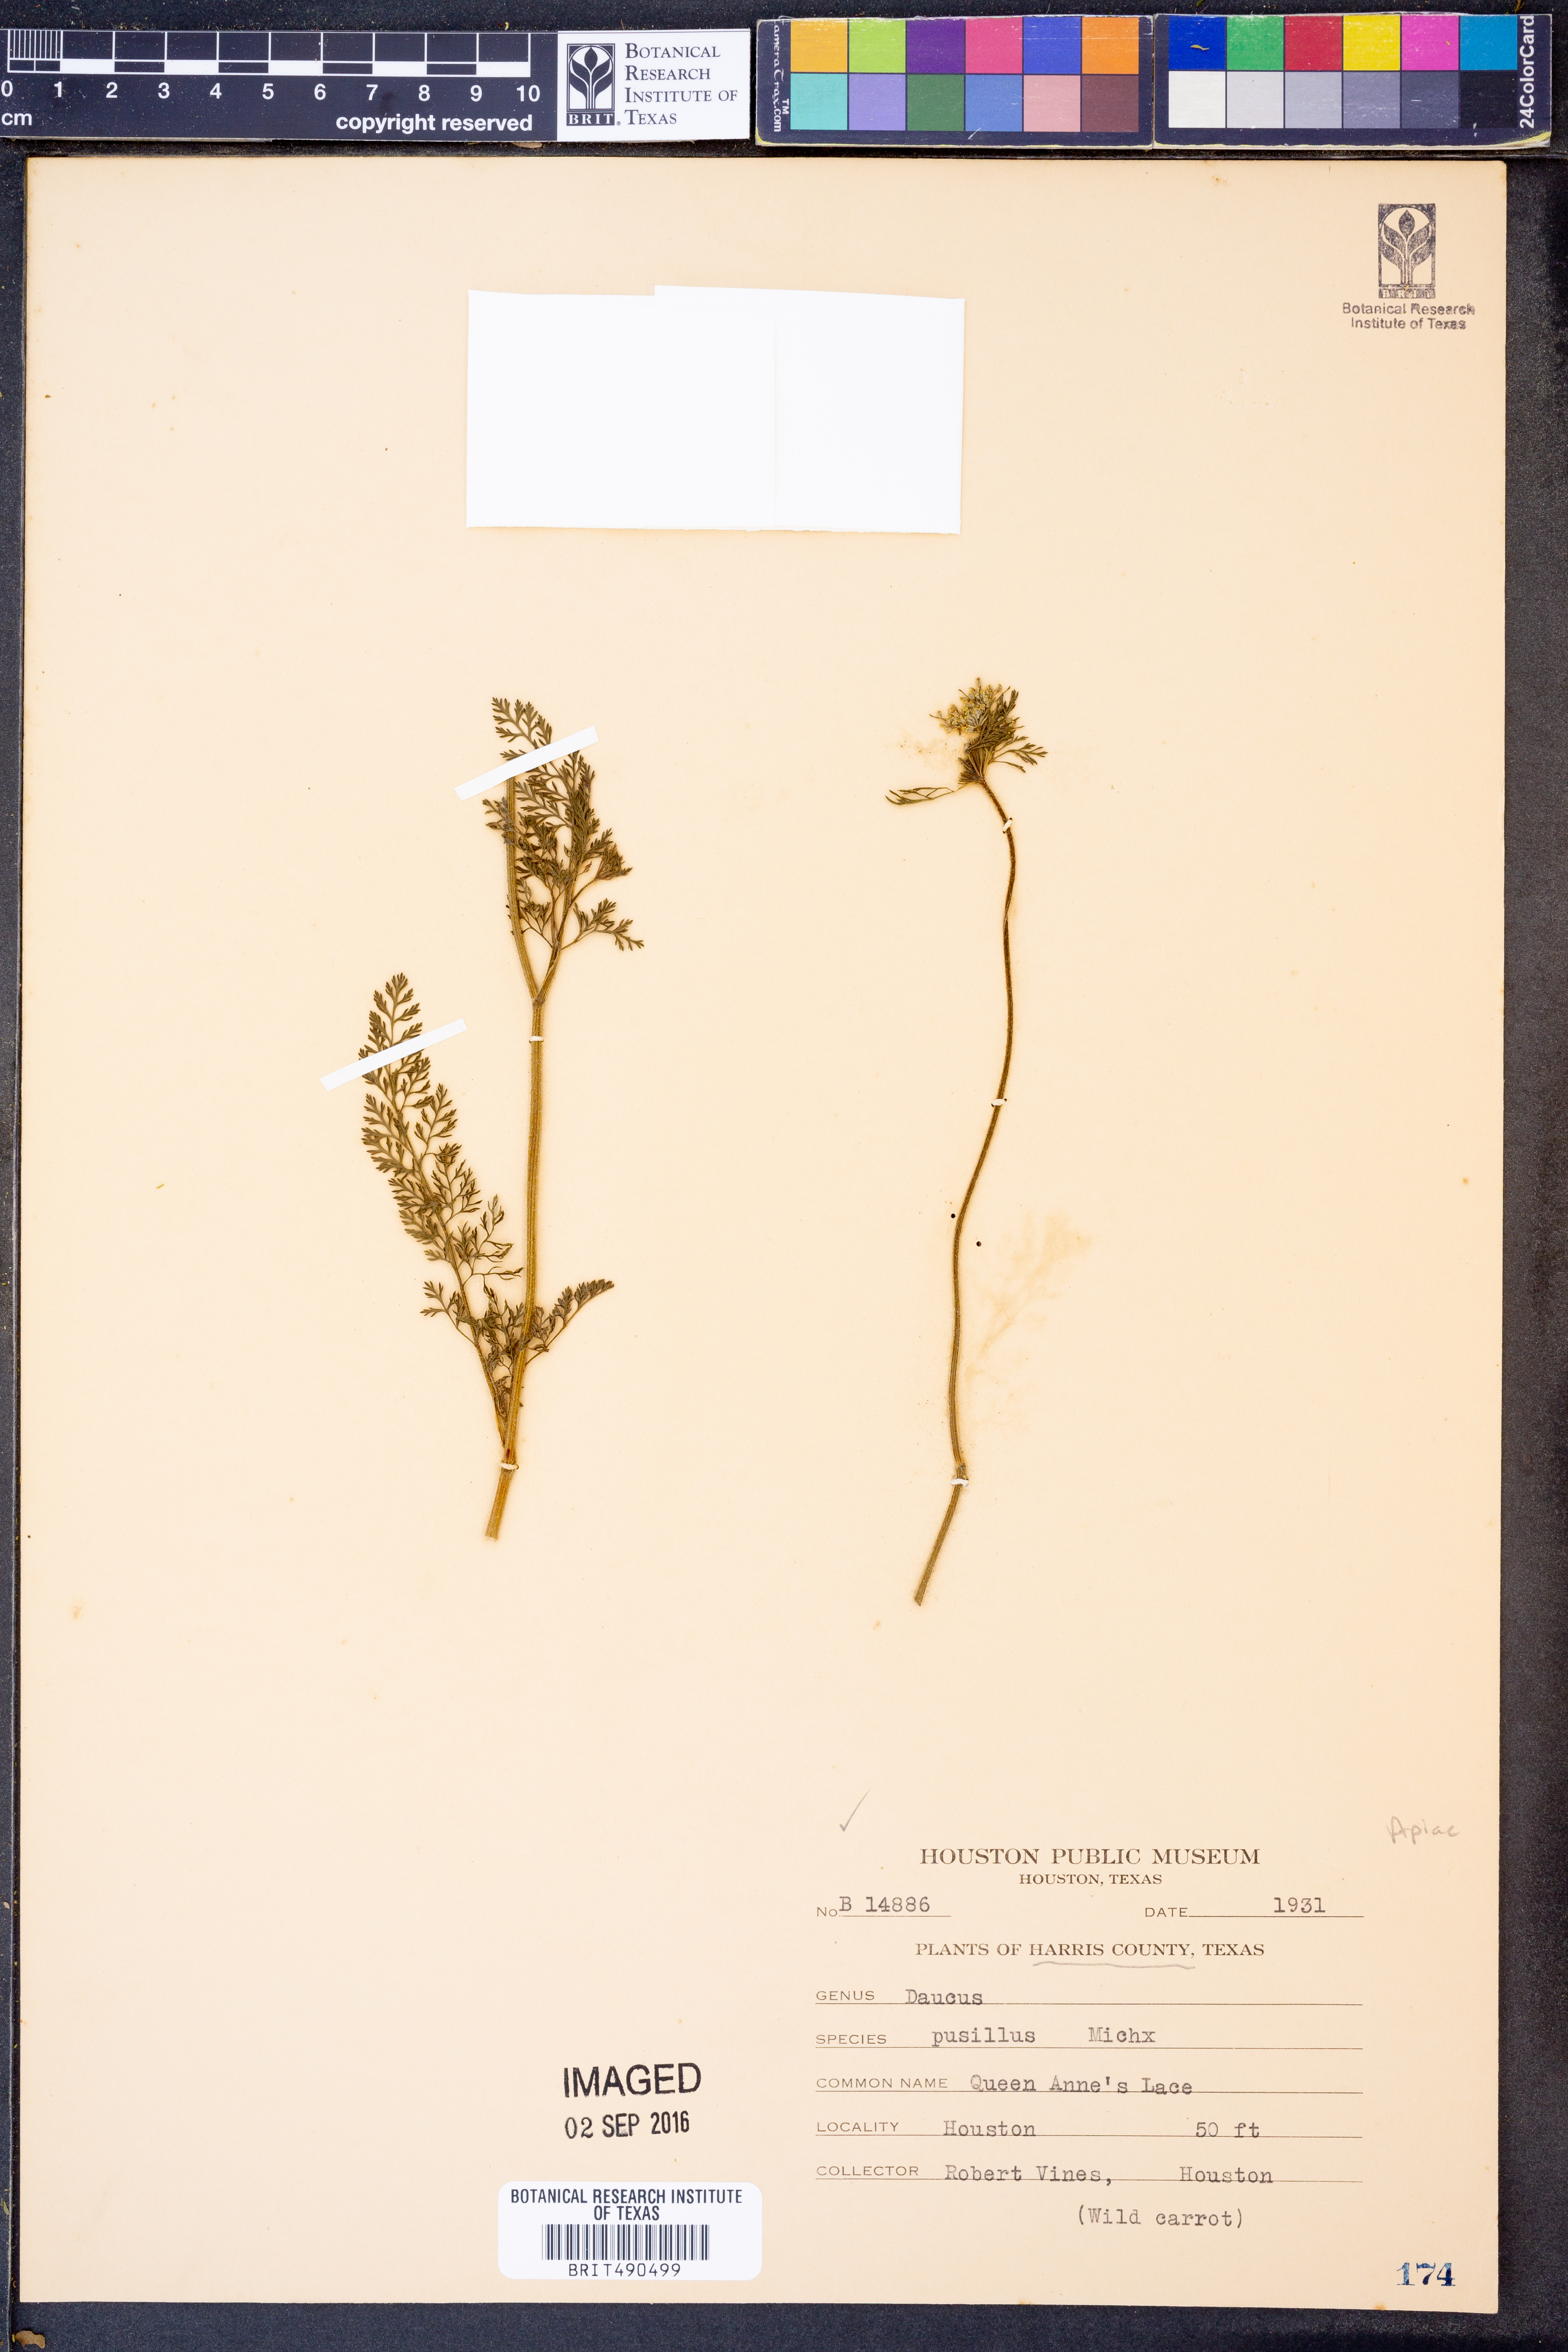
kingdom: Plantae
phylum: Tracheophyta
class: Magnoliopsida
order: Apiales
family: Apiaceae
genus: Daucus
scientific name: Daucus pusillus
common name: Southwest wild carrot
